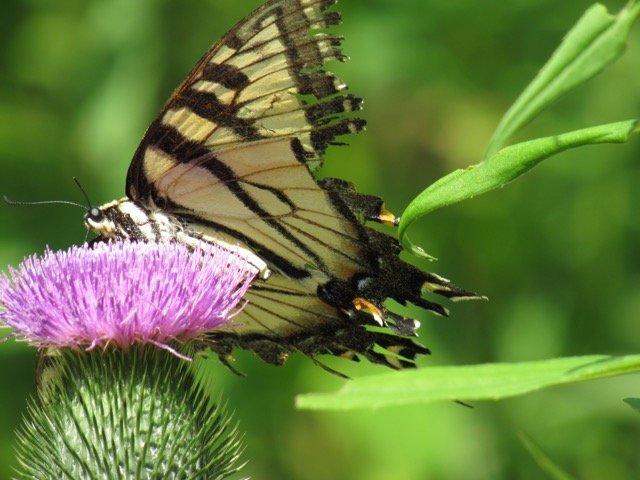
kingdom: Animalia
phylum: Arthropoda
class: Insecta
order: Lepidoptera
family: Papilionidae
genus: Pterourus
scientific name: Pterourus
